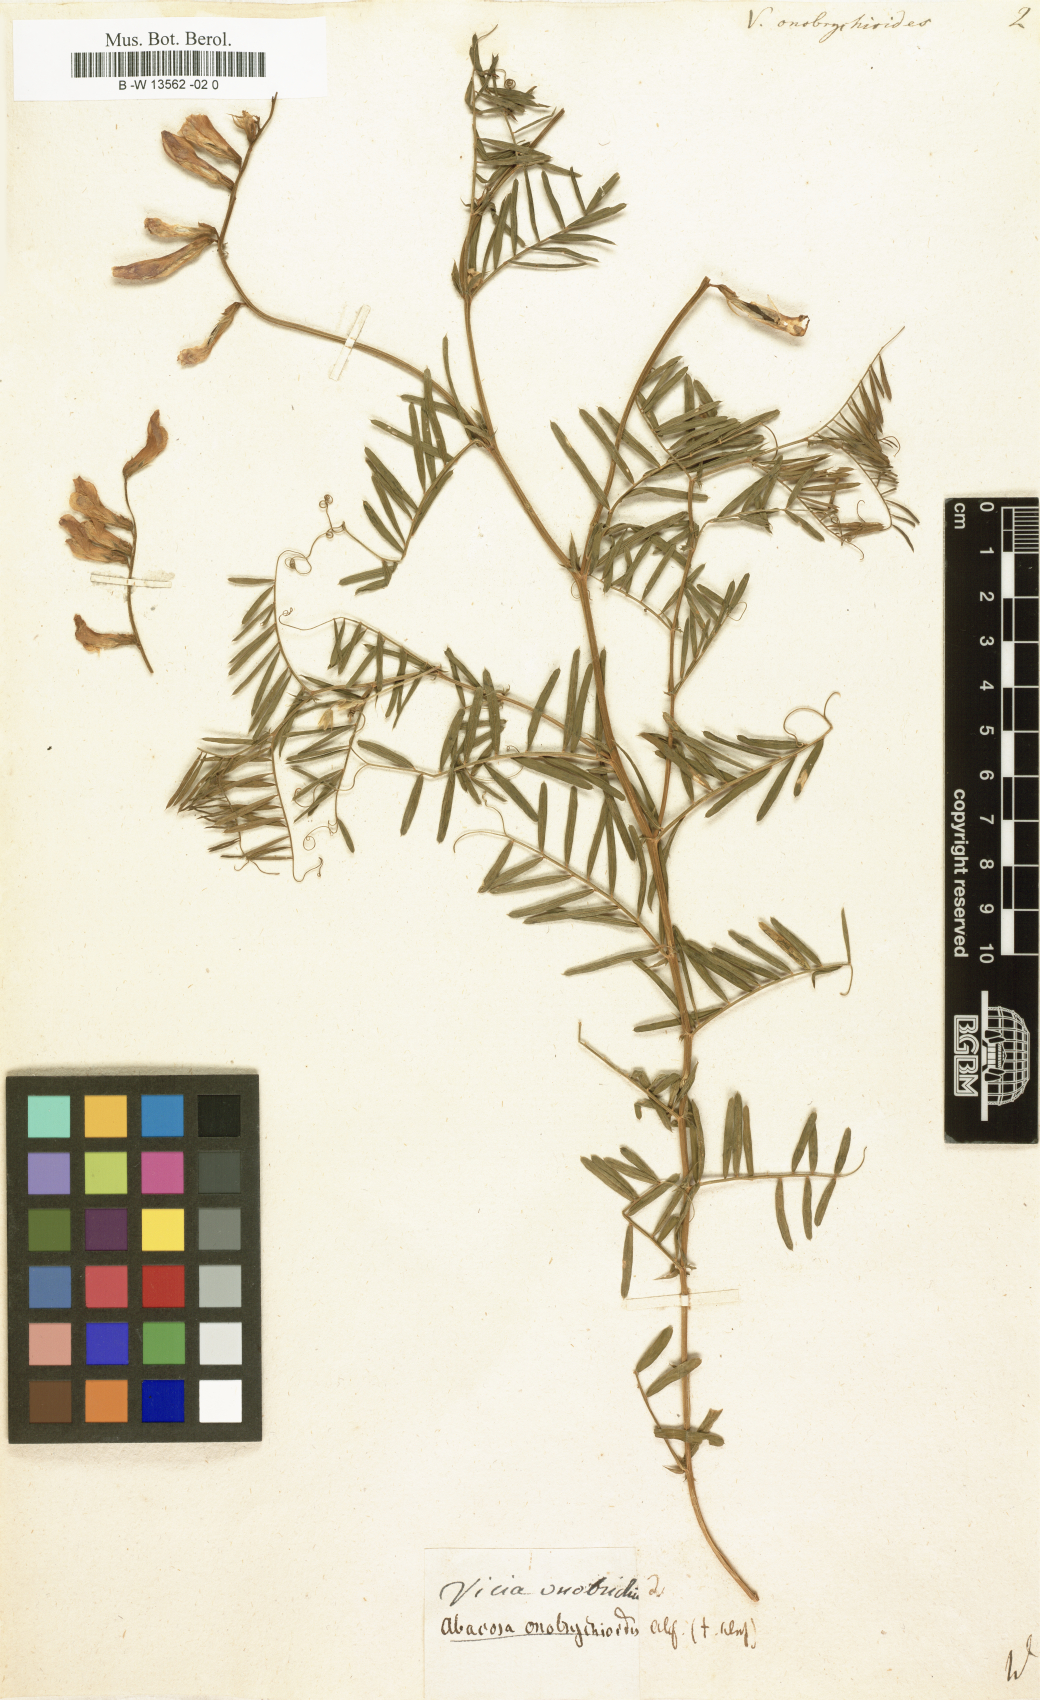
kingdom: Plantae
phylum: Tracheophyta
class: Magnoliopsida
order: Fabales
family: Fabaceae
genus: Vicia
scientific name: Vicia onobrychioides
